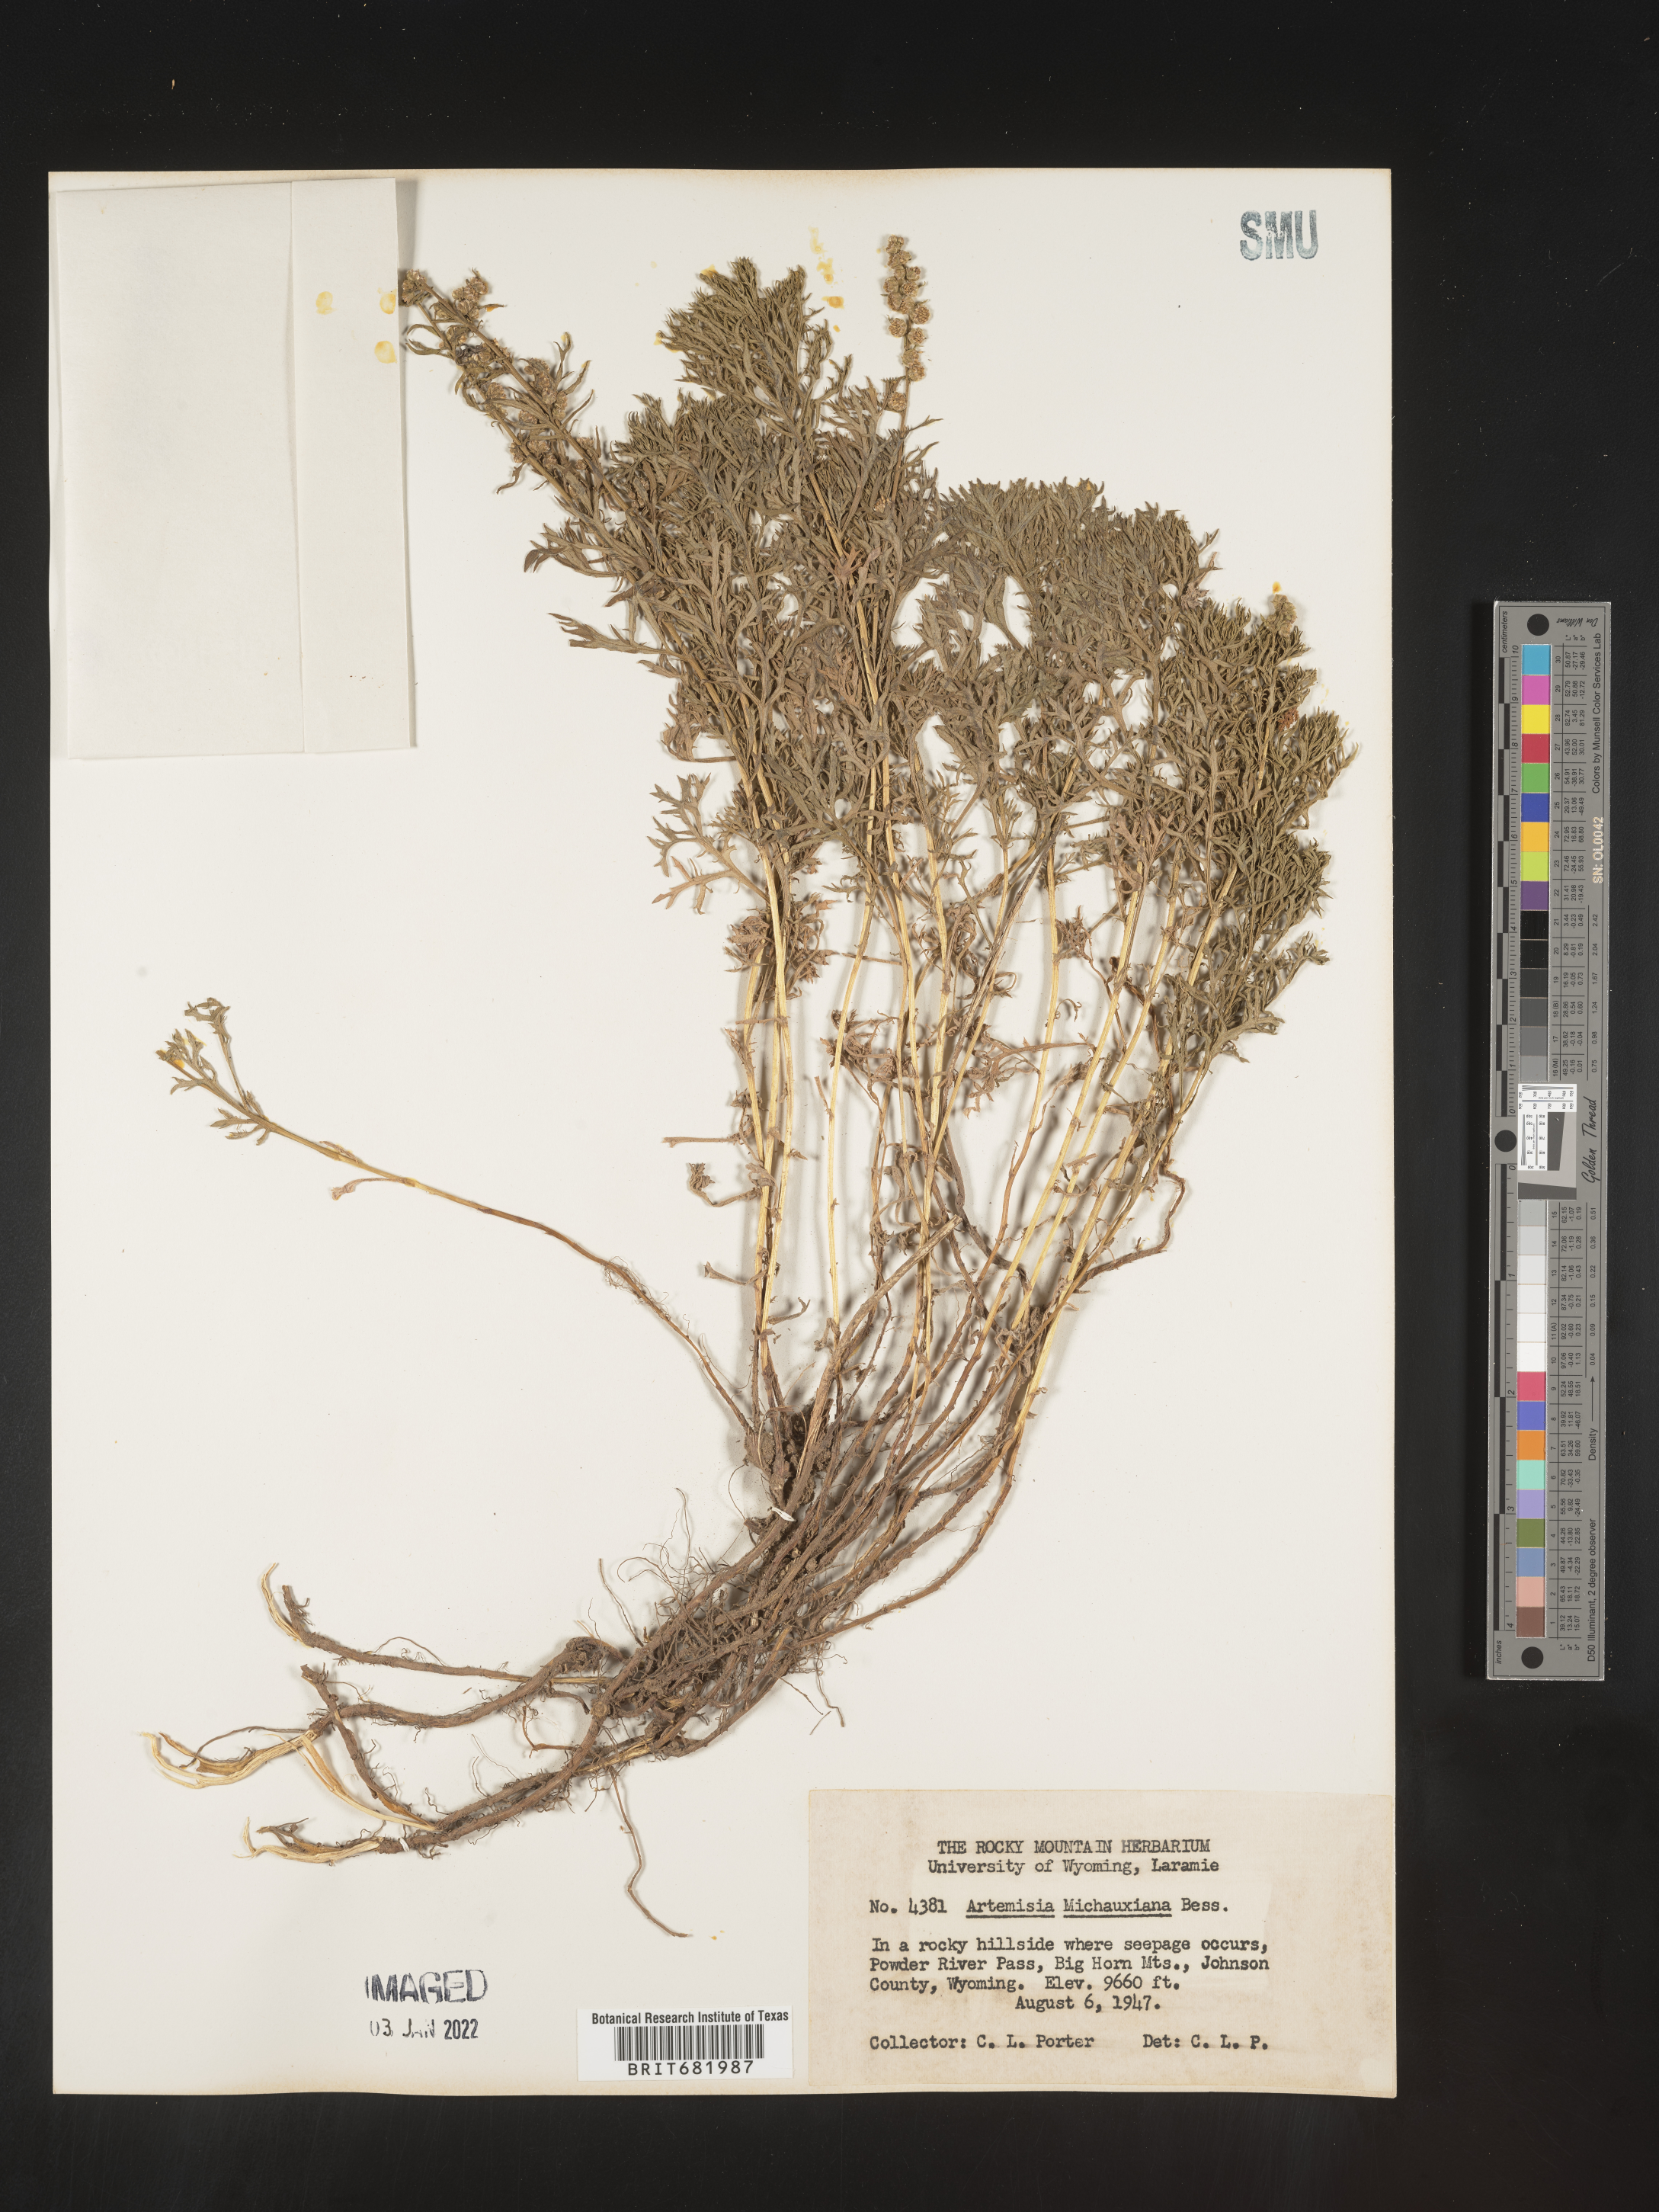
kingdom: Plantae
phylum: Tracheophyta
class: Magnoliopsida
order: Asterales
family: Asteraceae
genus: Artemisia
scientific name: Artemisia michauxiana
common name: Lemon sagewort
